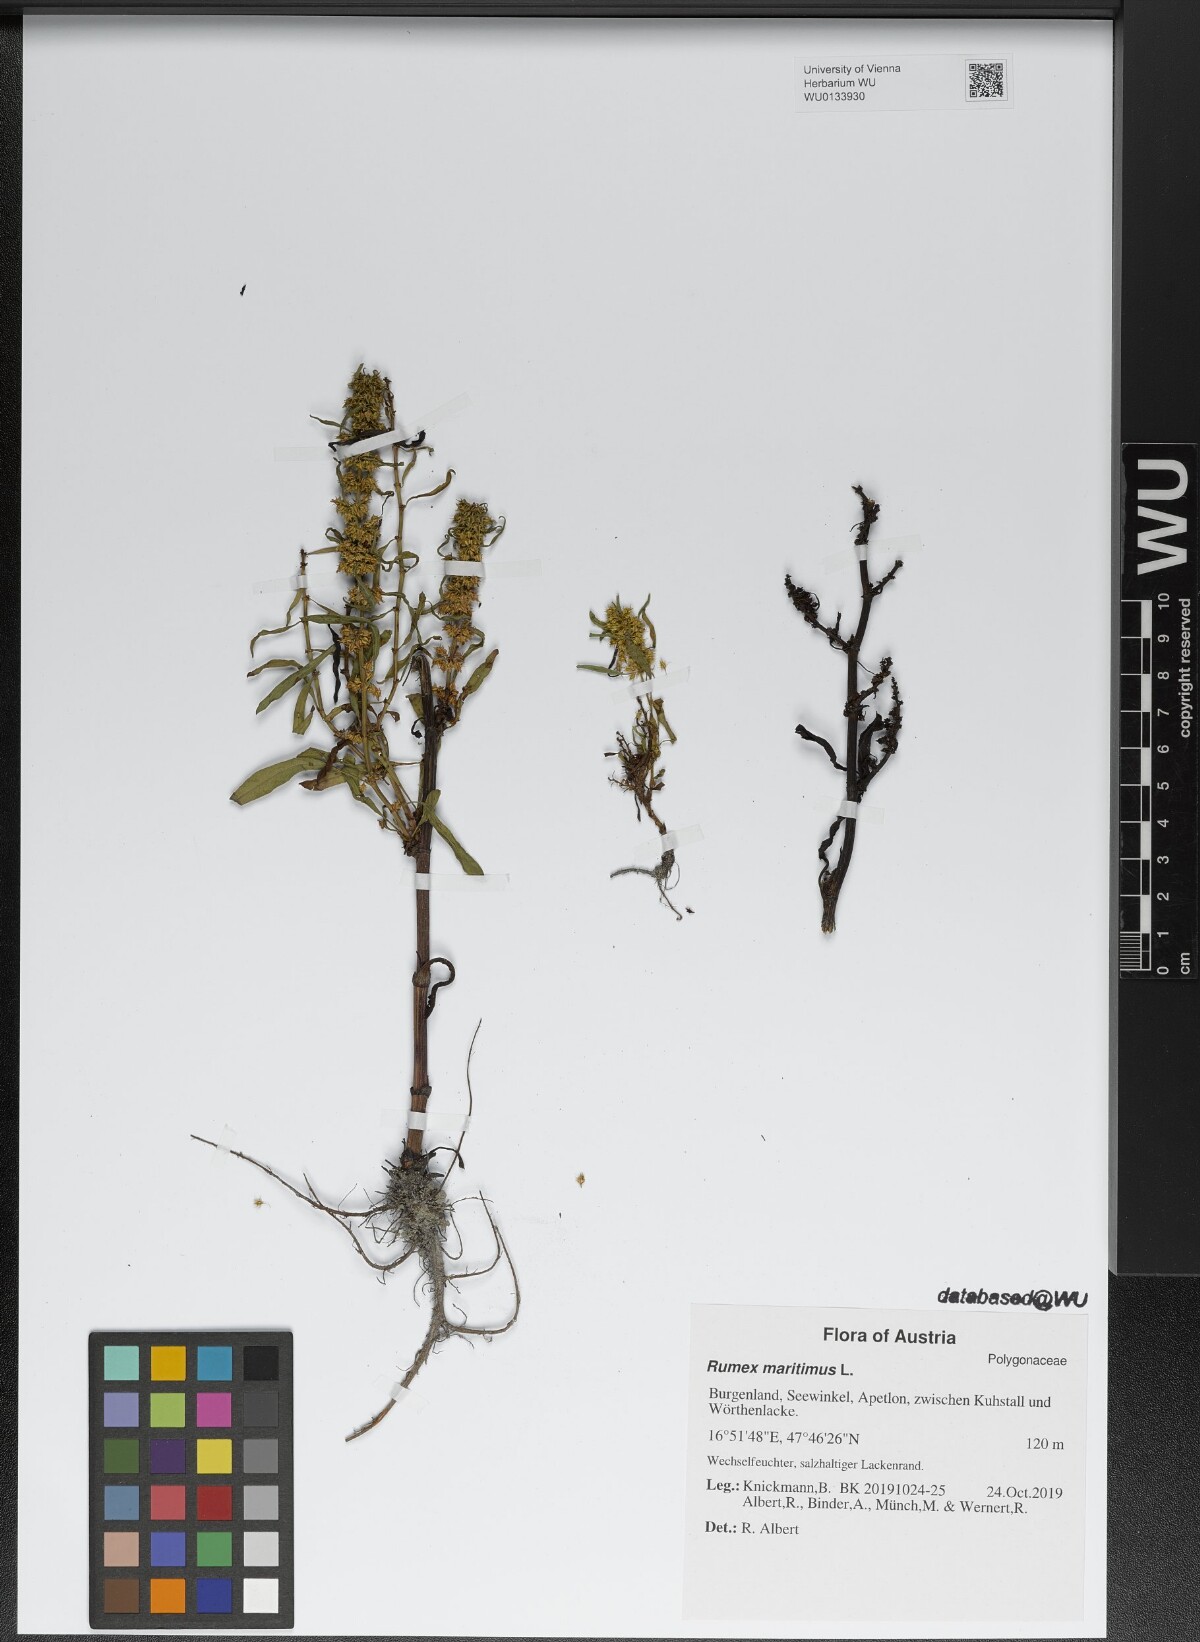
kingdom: Plantae
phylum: Tracheophyta
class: Magnoliopsida
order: Caryophyllales
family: Polygonaceae
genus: Rumex
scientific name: Rumex maritimus
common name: Golden dock
